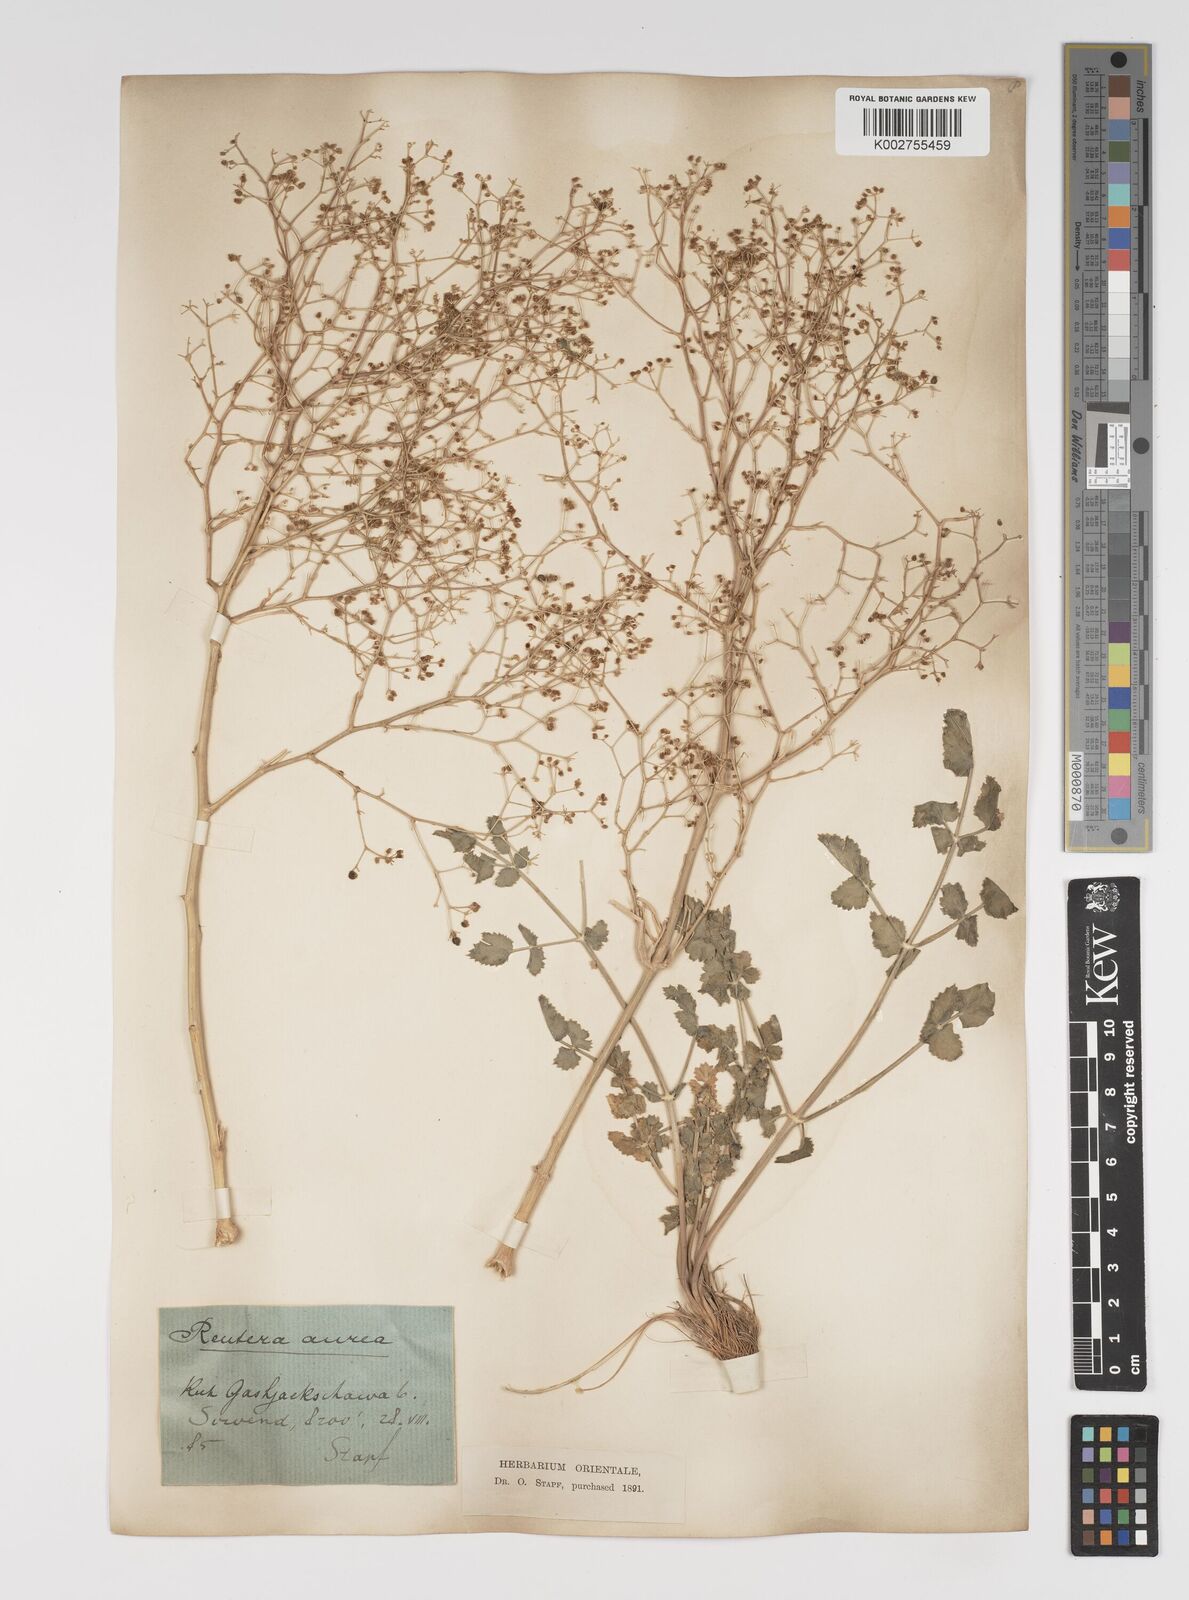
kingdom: Plantae
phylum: Tracheophyta
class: Magnoliopsida
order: Apiales
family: Apiaceae
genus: Pimpinella
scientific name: Pimpinella aurea
